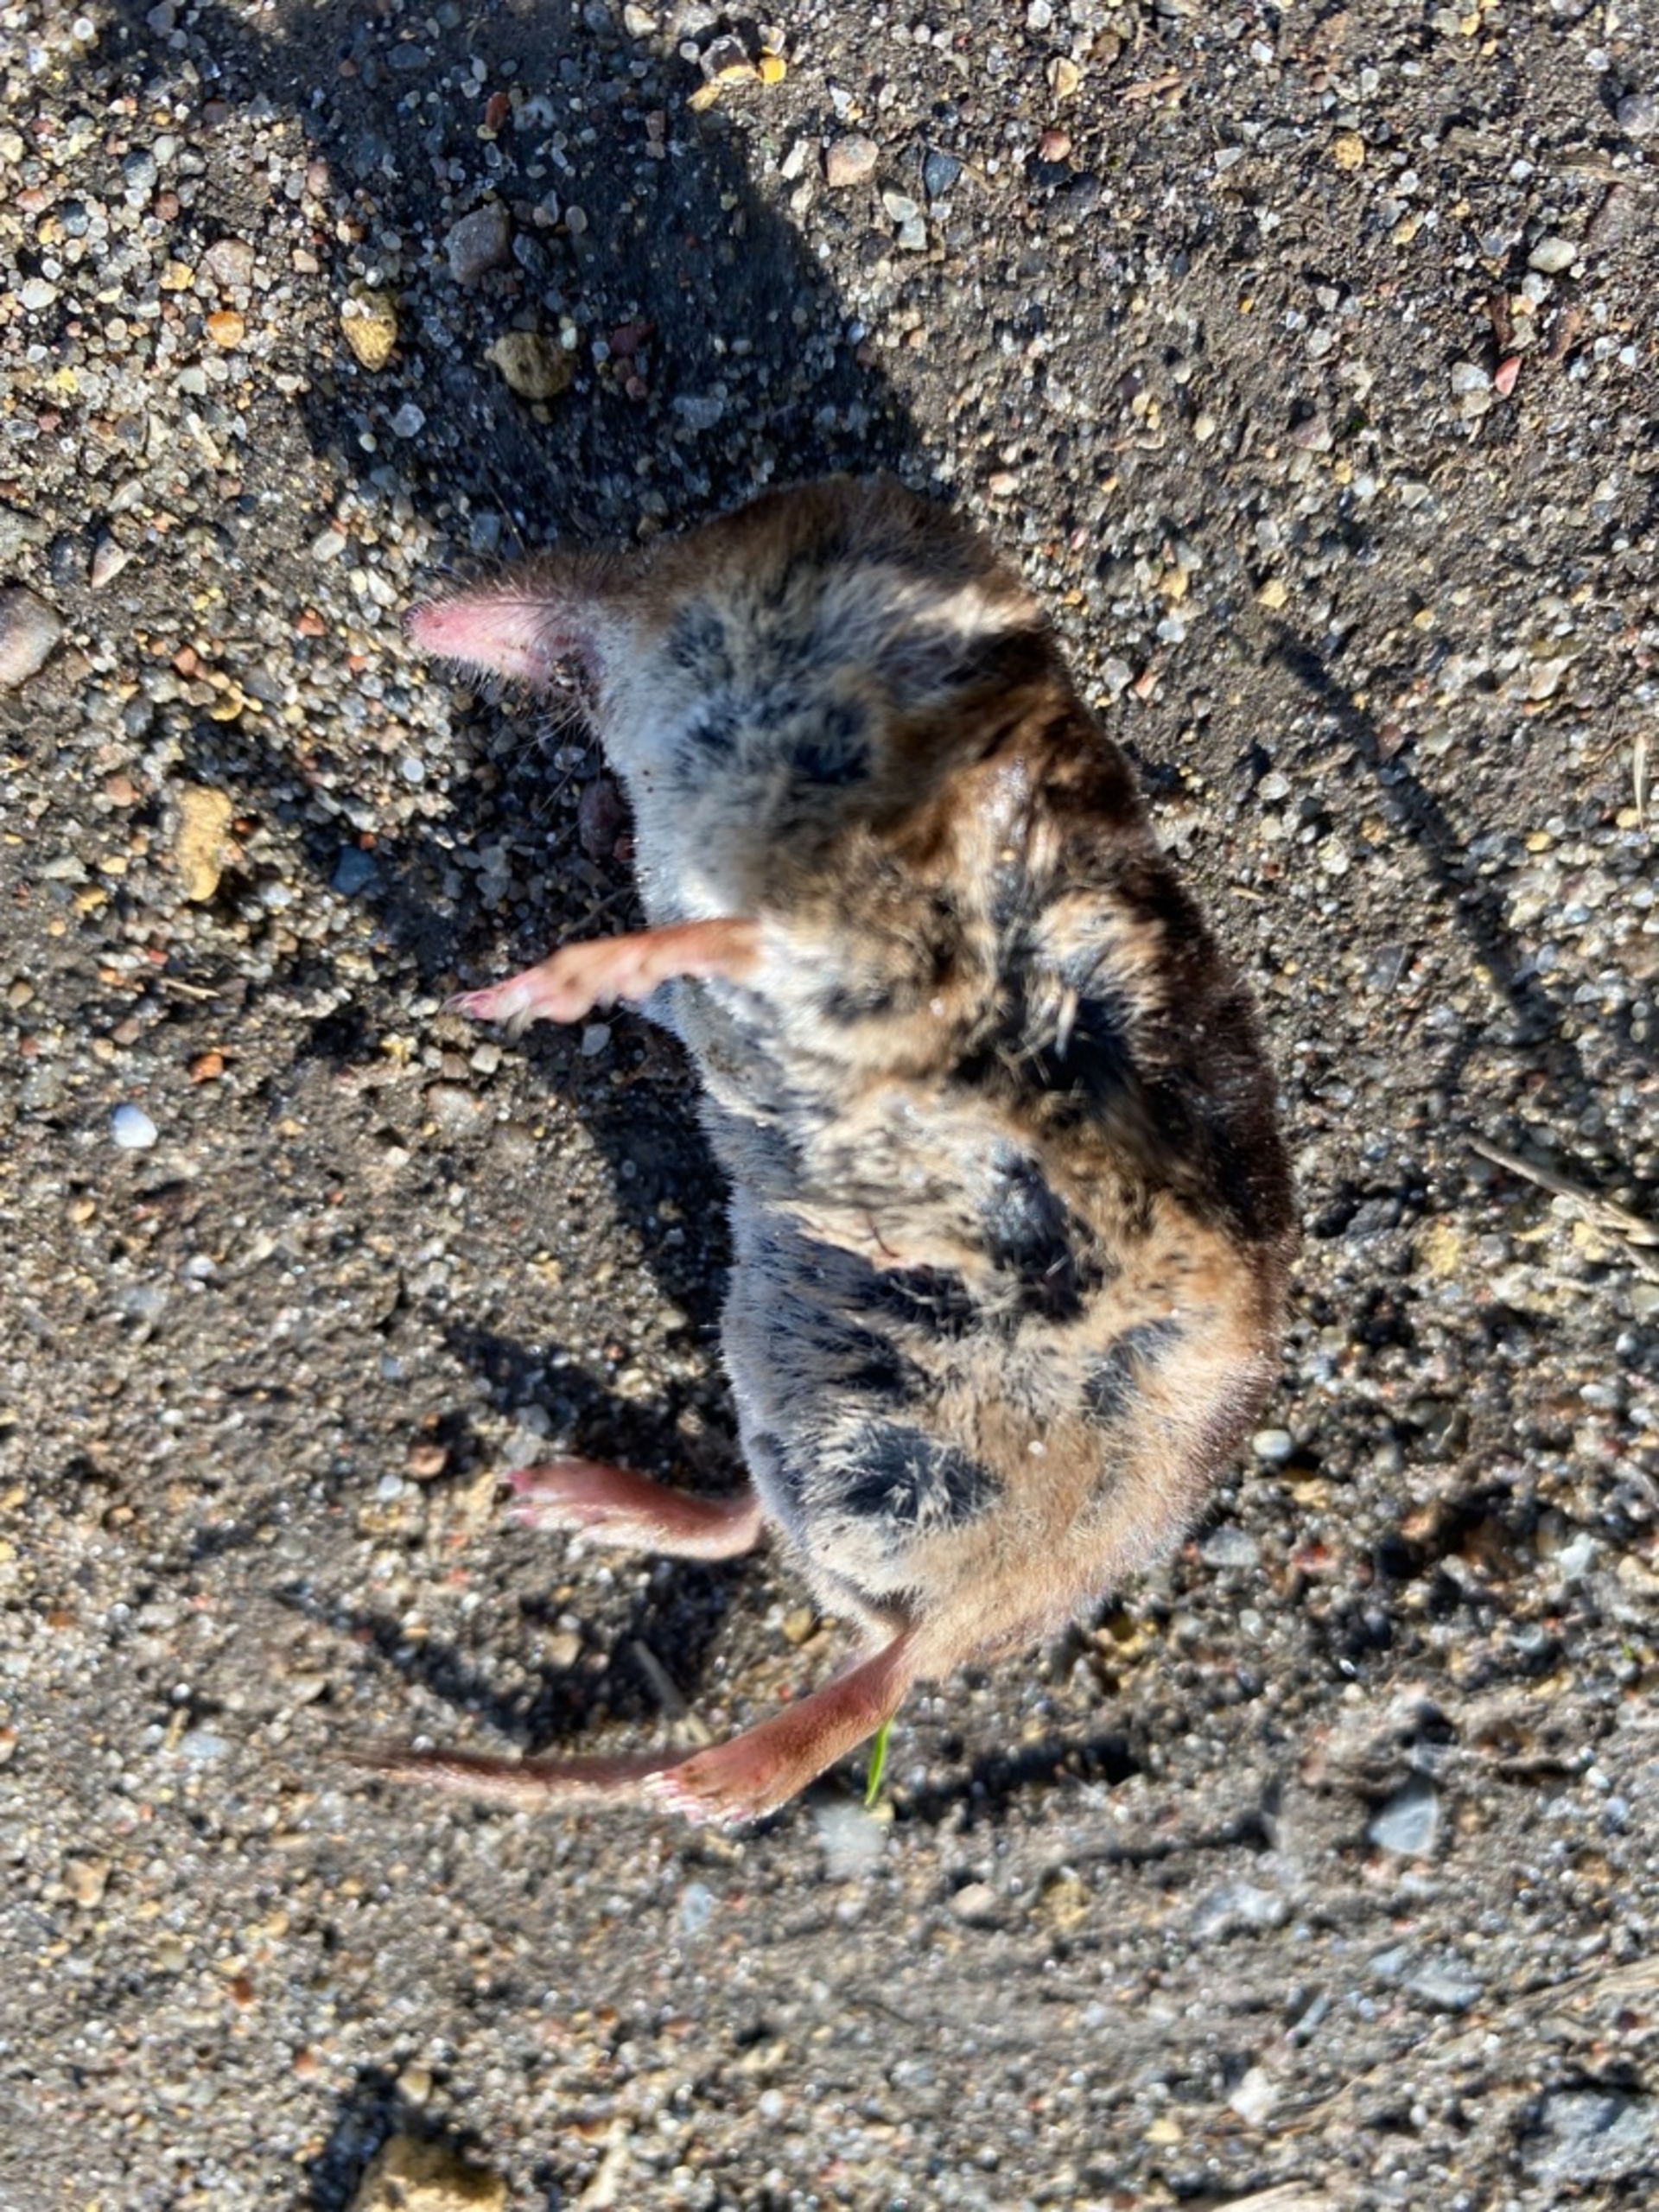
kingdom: Animalia
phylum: Chordata
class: Mammalia
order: Soricomorpha
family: Soricidae
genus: Sorex
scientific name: Sorex araneus
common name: Almindelig spidsmus
